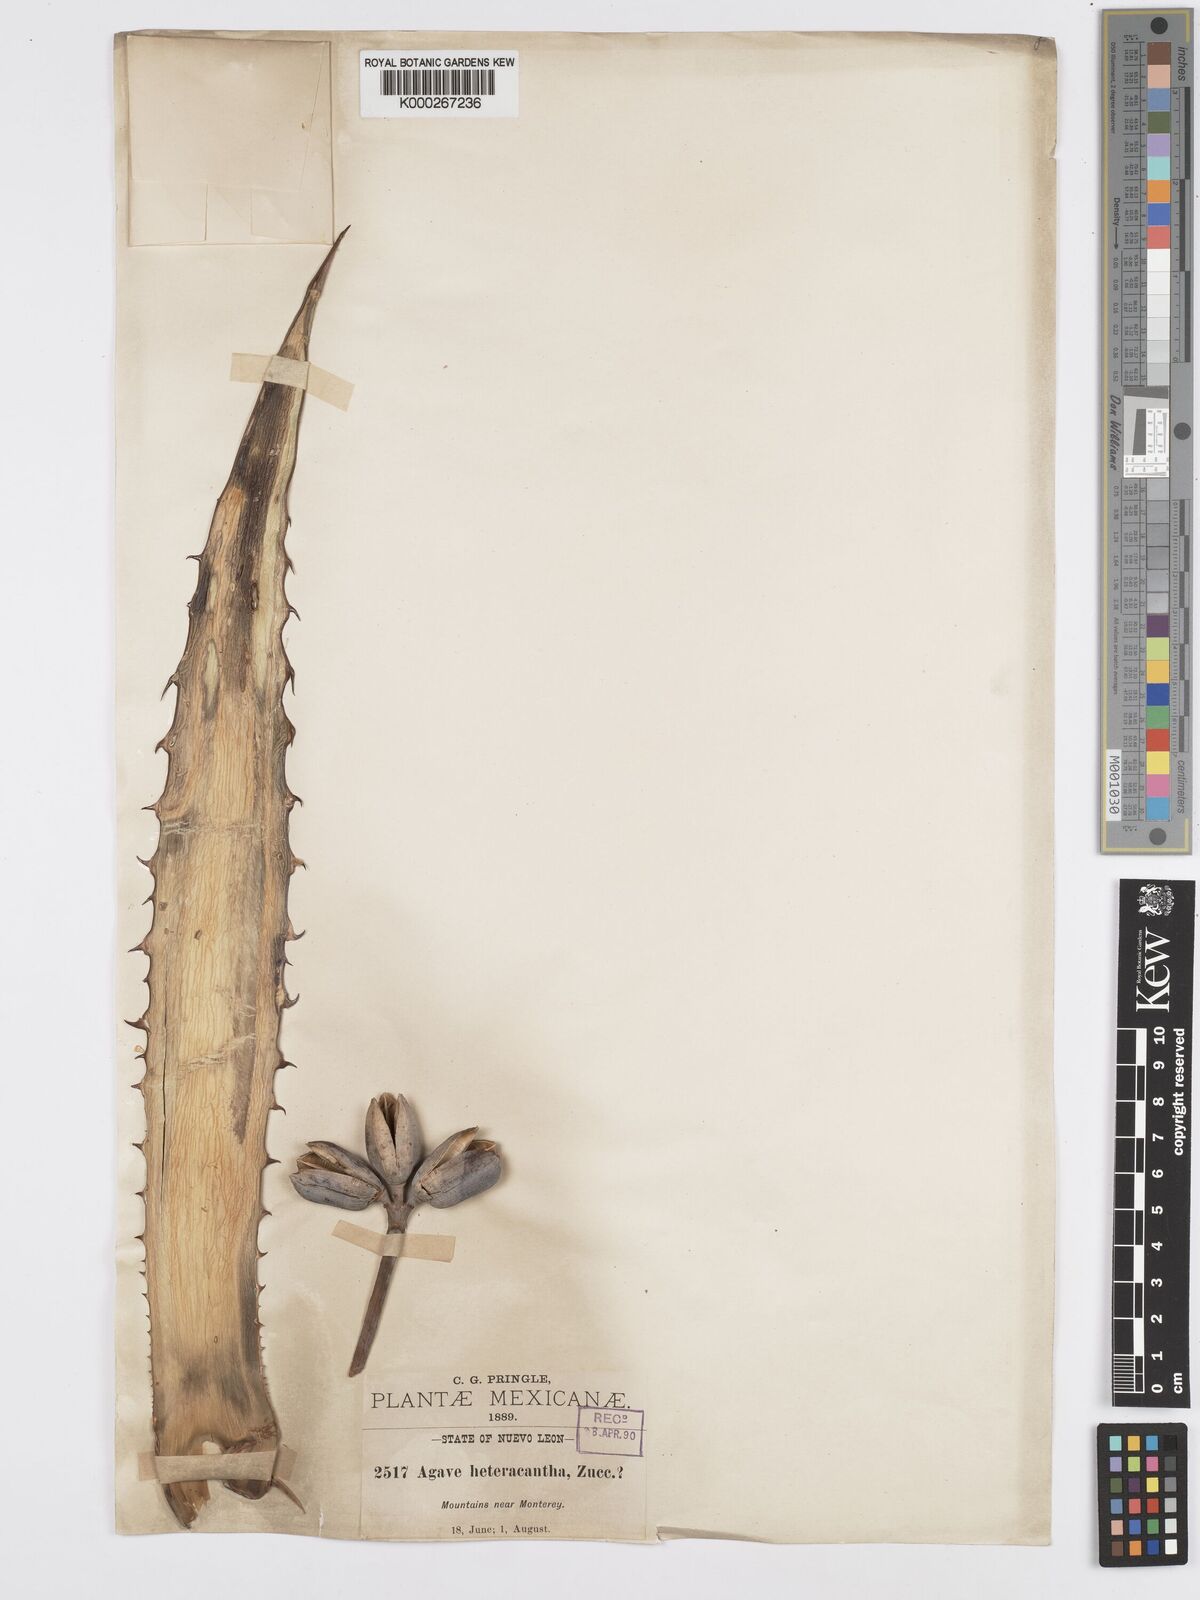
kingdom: Plantae
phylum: Tracheophyta
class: Liliopsida
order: Asparagales
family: Asparagaceae
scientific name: Asparagaceae
